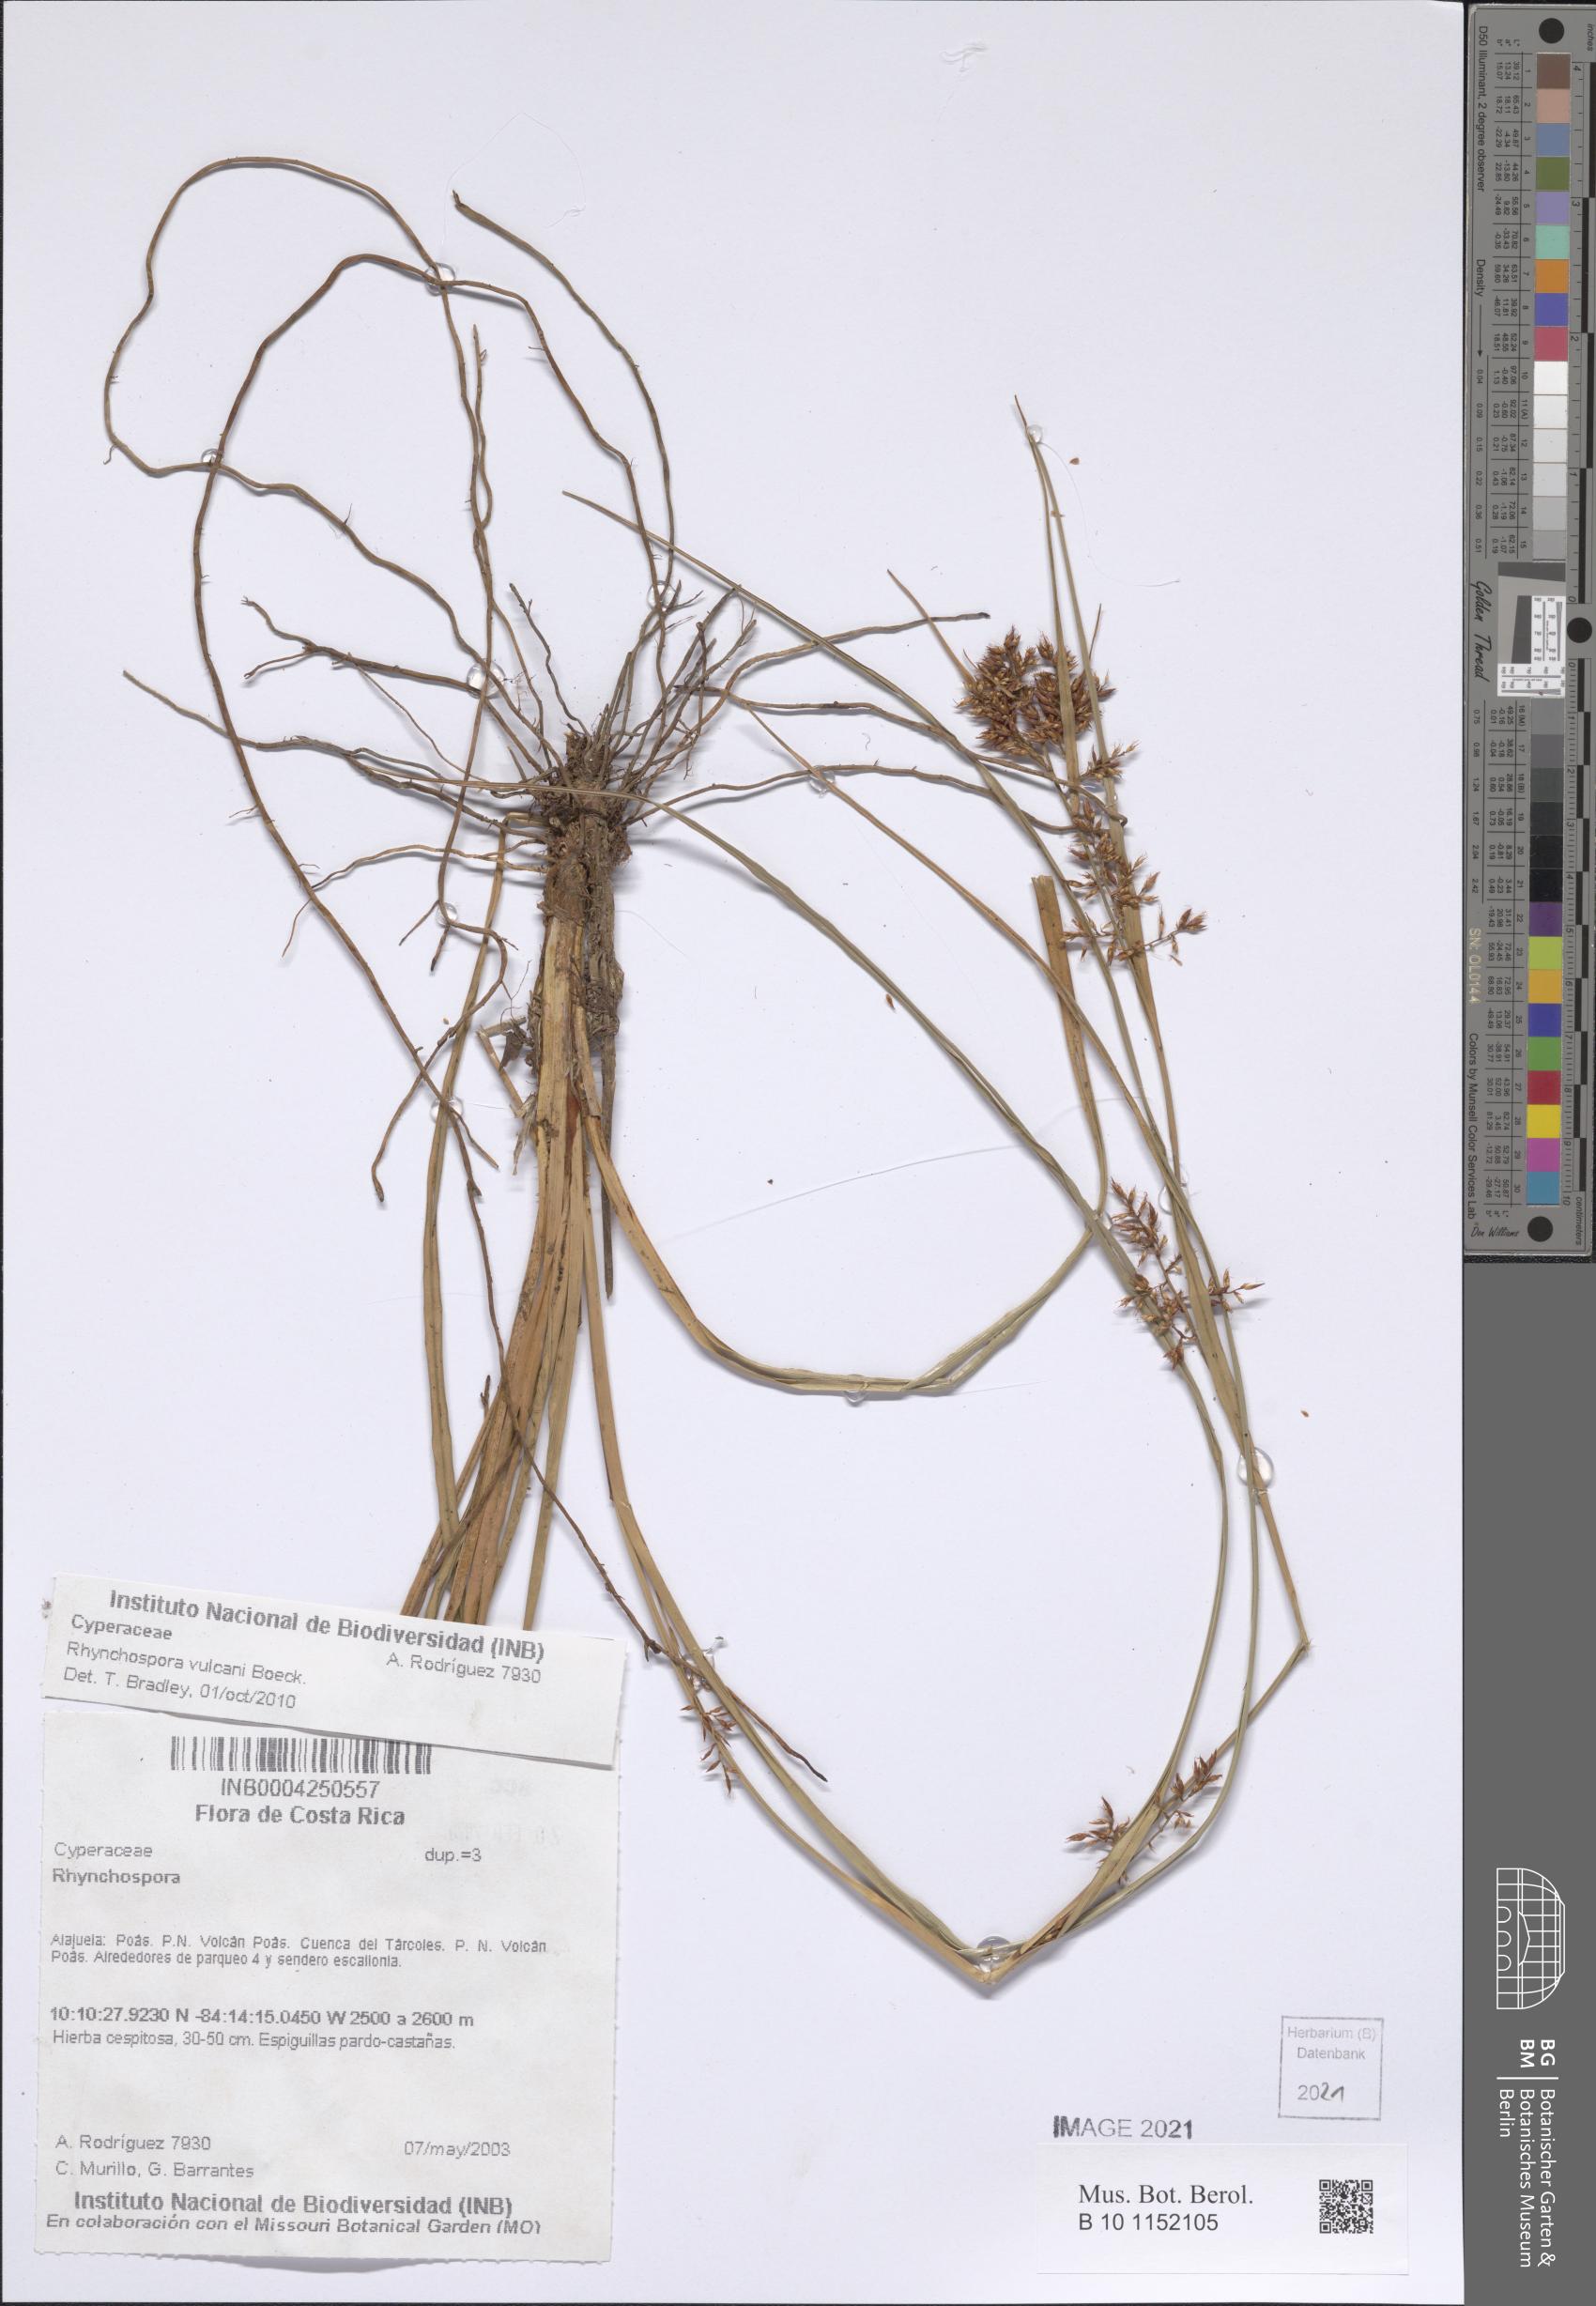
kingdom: Plantae
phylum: Tracheophyta
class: Liliopsida
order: Poales
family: Cyperaceae
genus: Rhynchospora
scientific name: Rhynchospora vulcani
